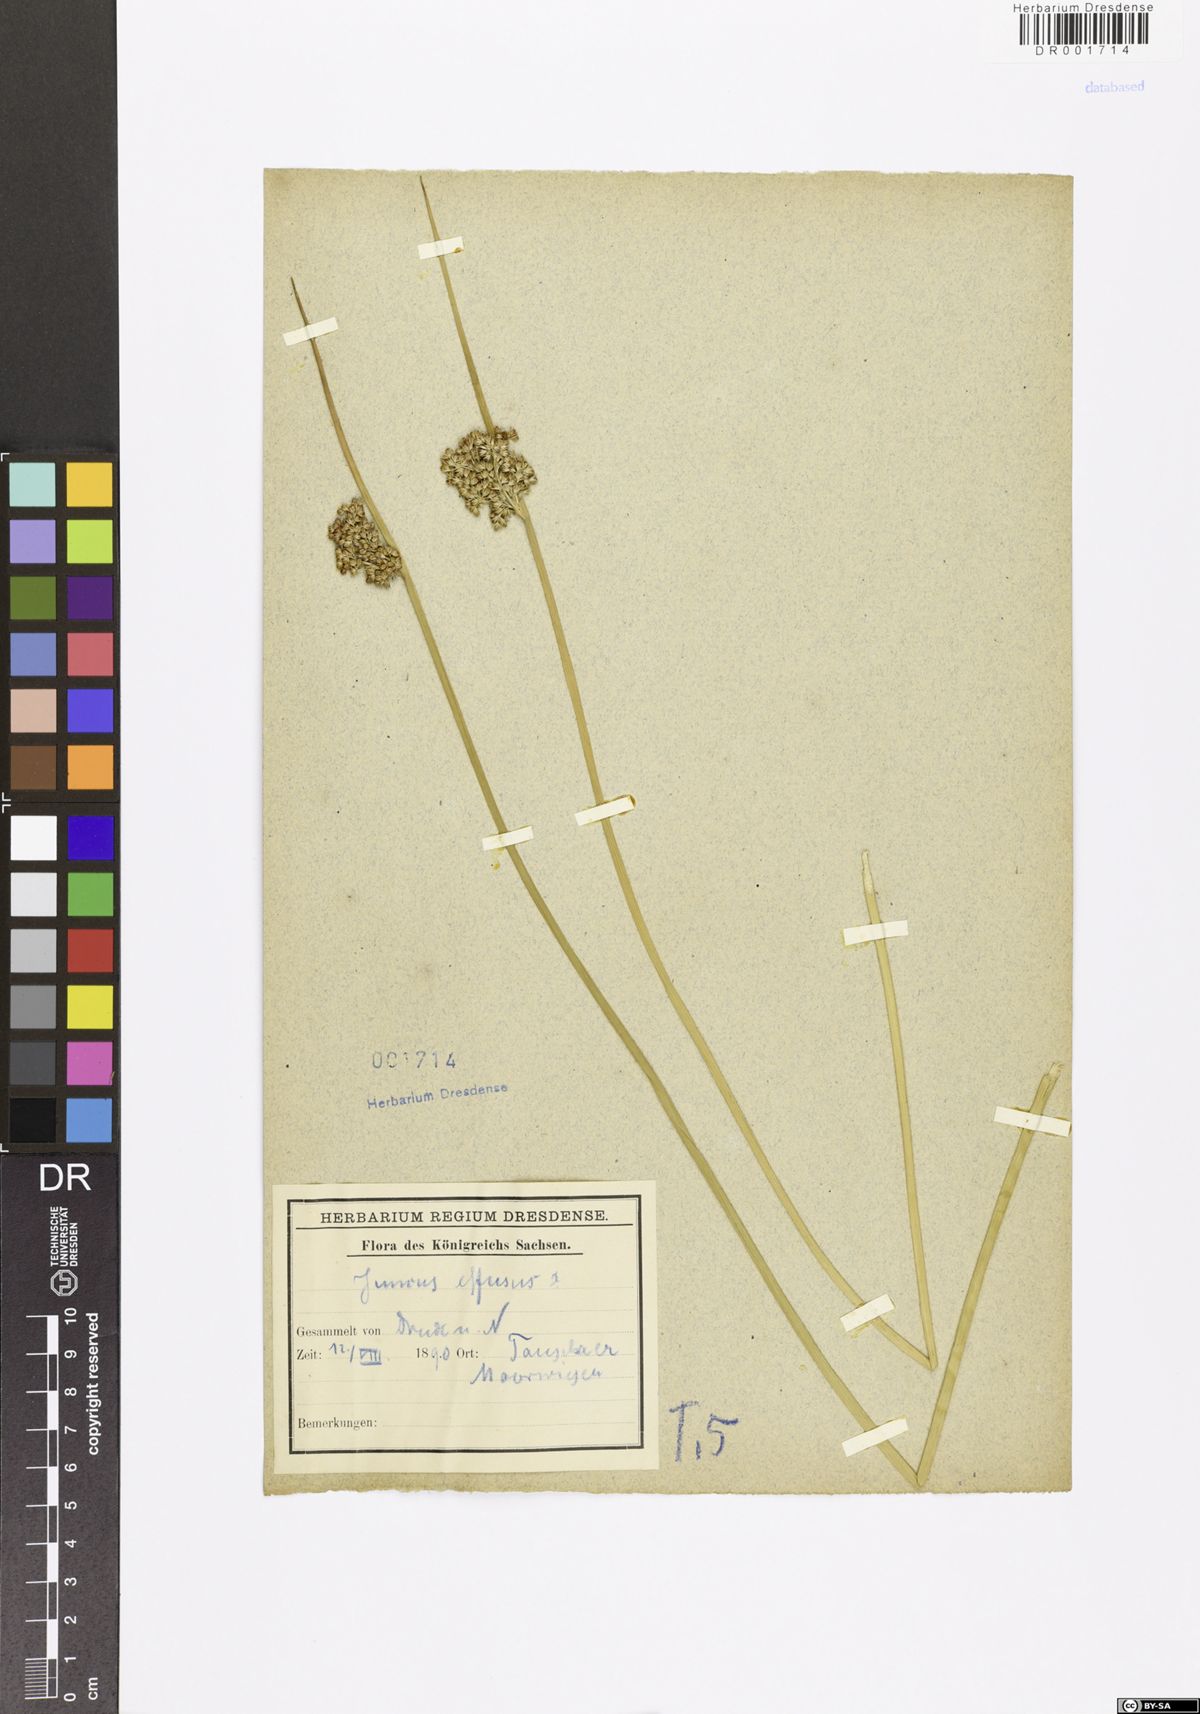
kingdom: Plantae
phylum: Tracheophyta
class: Liliopsida
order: Poales
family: Juncaceae
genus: Juncus
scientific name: Juncus effusus
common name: Soft rush
